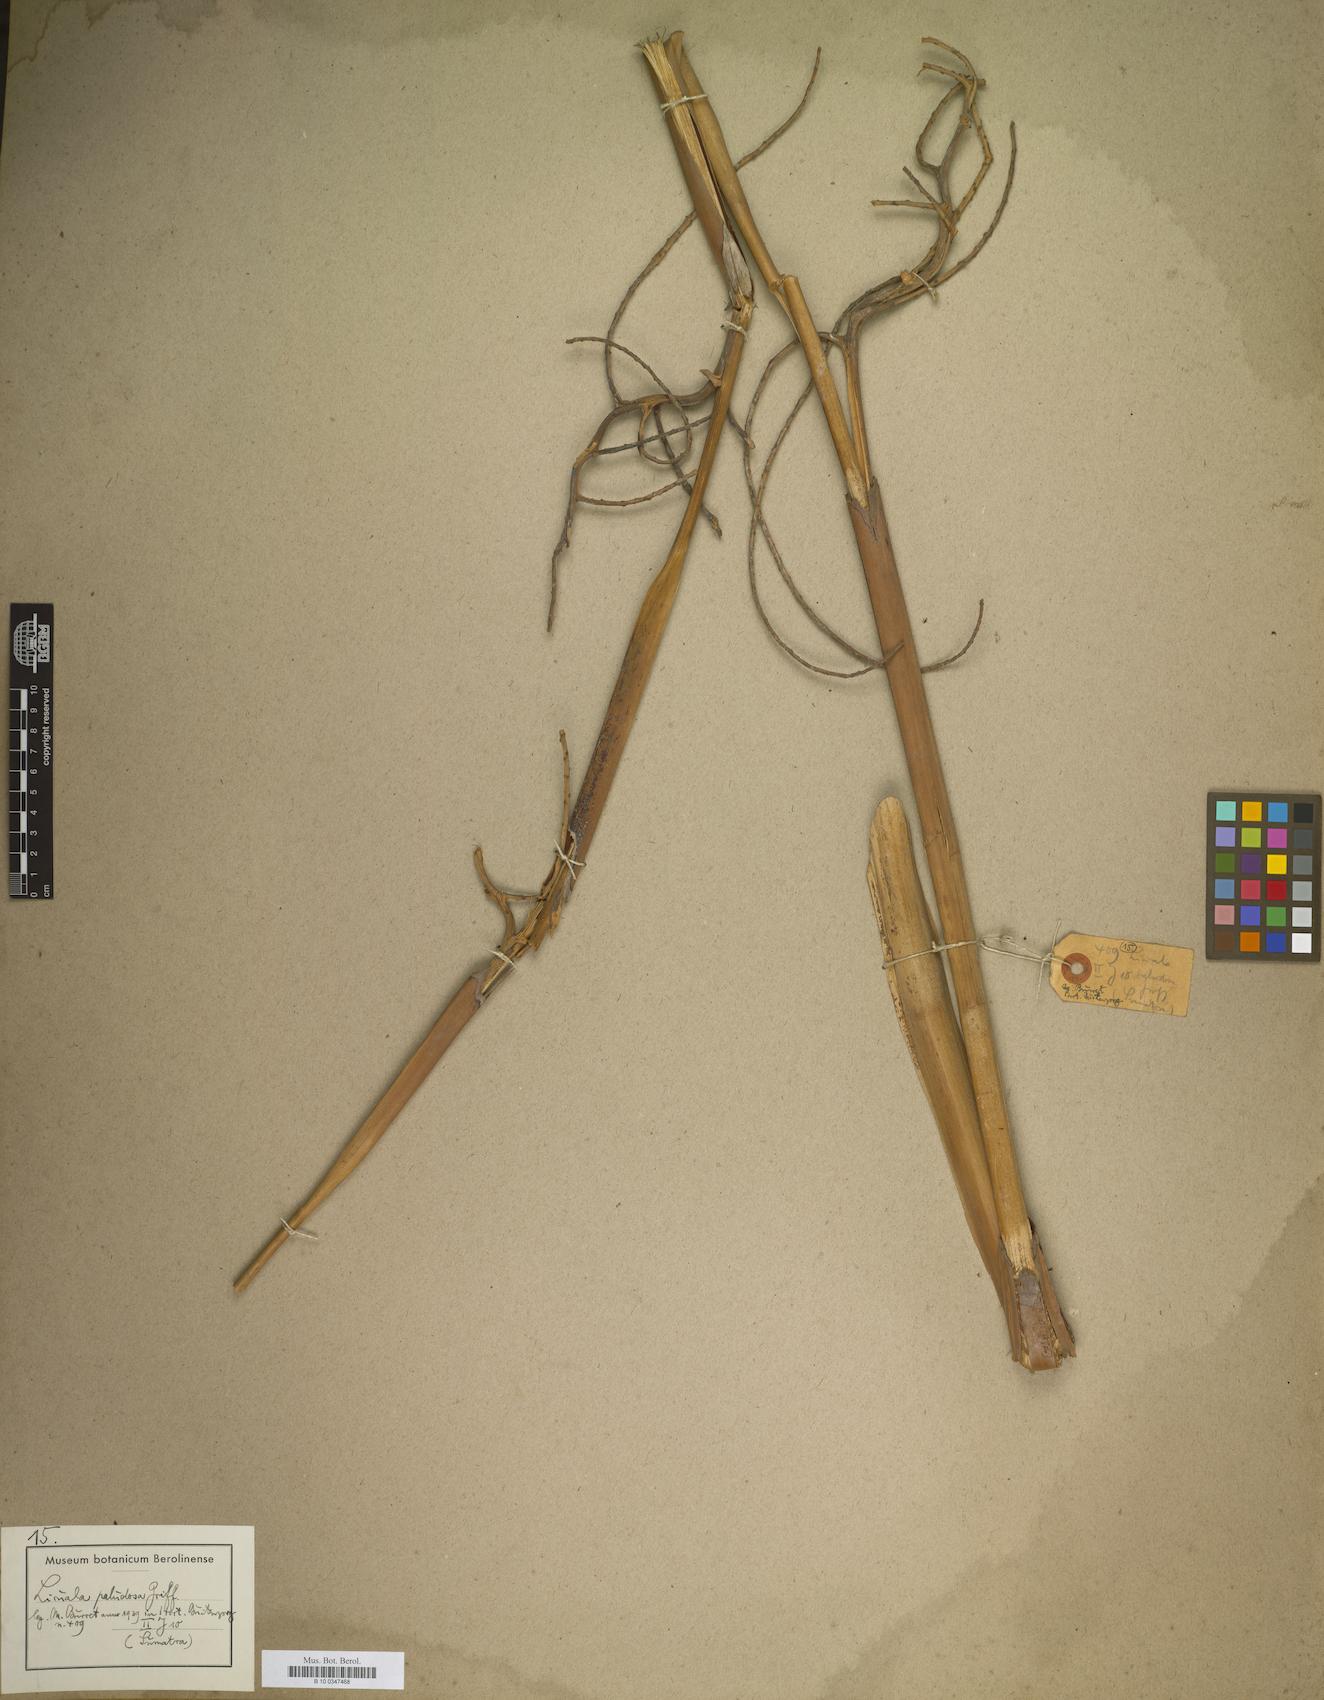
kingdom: Plantae
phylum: Tracheophyta
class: Liliopsida
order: Arecales
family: Arecaceae
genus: Licuala
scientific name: Licuala paludosa
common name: Swamp fan palm
